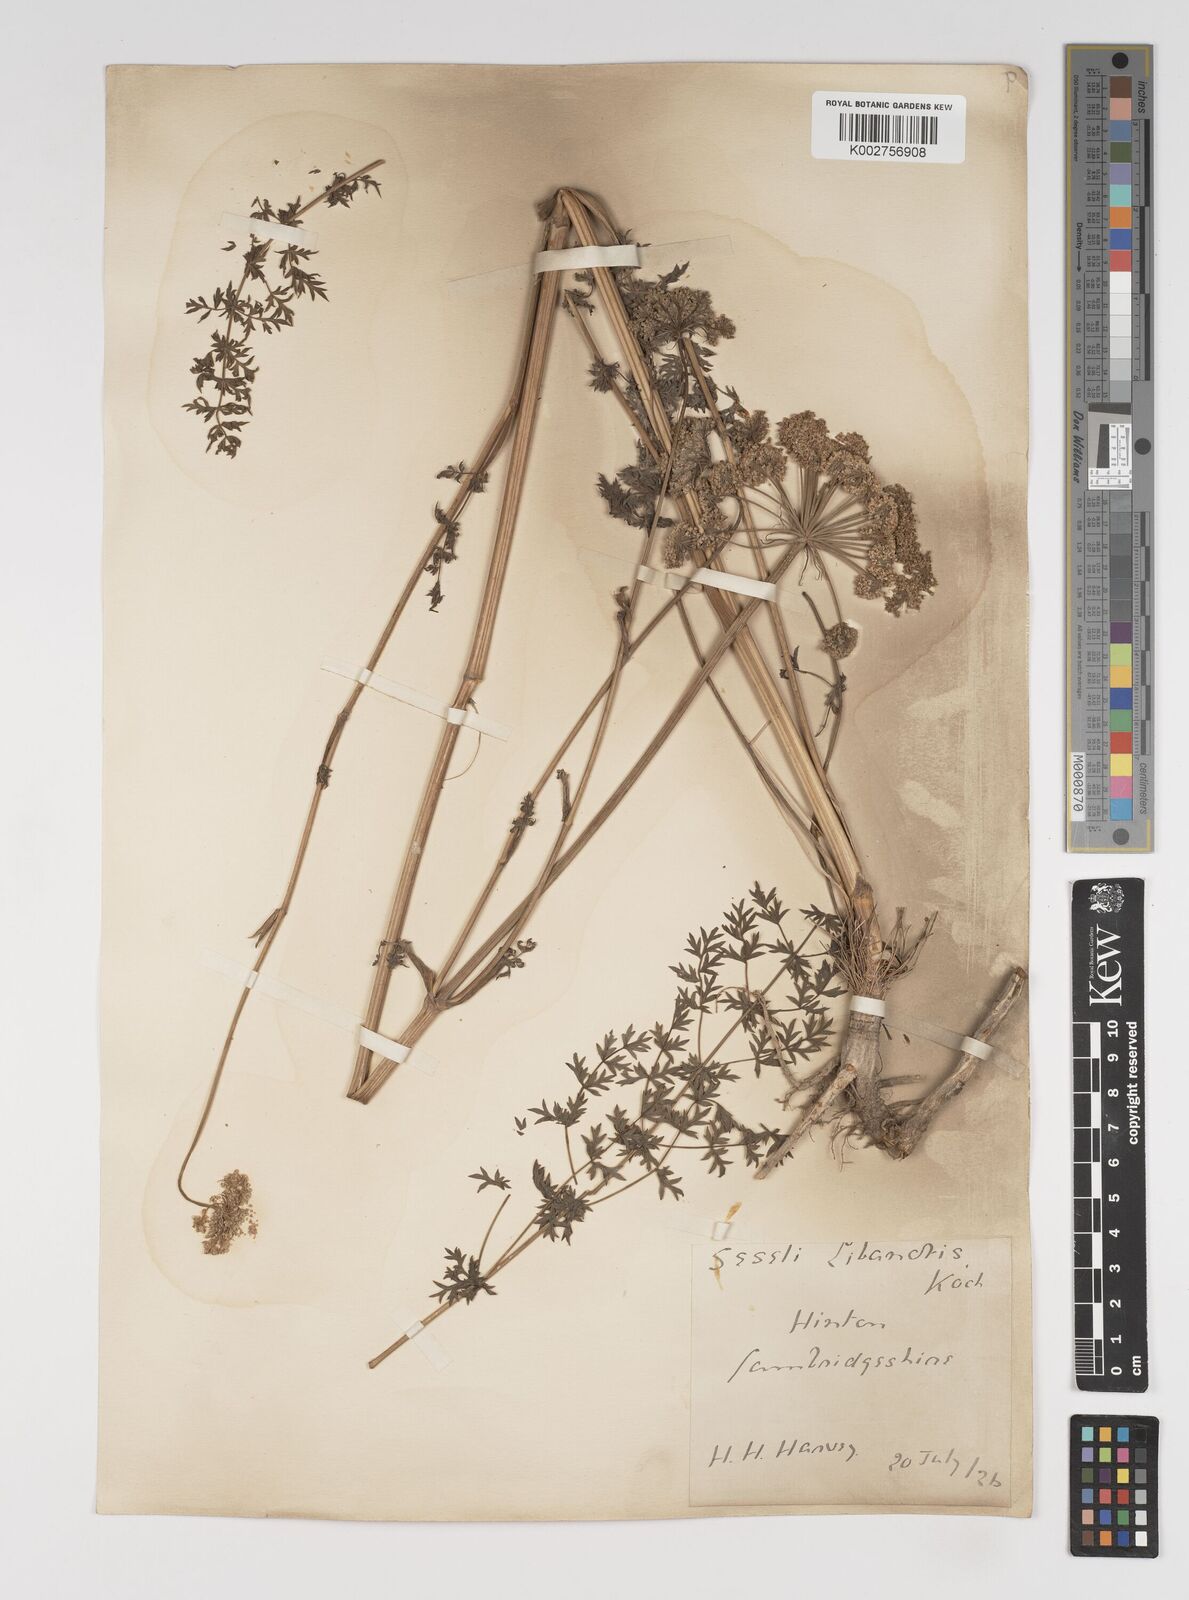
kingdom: Plantae
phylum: Tracheophyta
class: Magnoliopsida
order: Apiales
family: Apiaceae
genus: Seseli
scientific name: Seseli libanotis
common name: Mooncarrot
